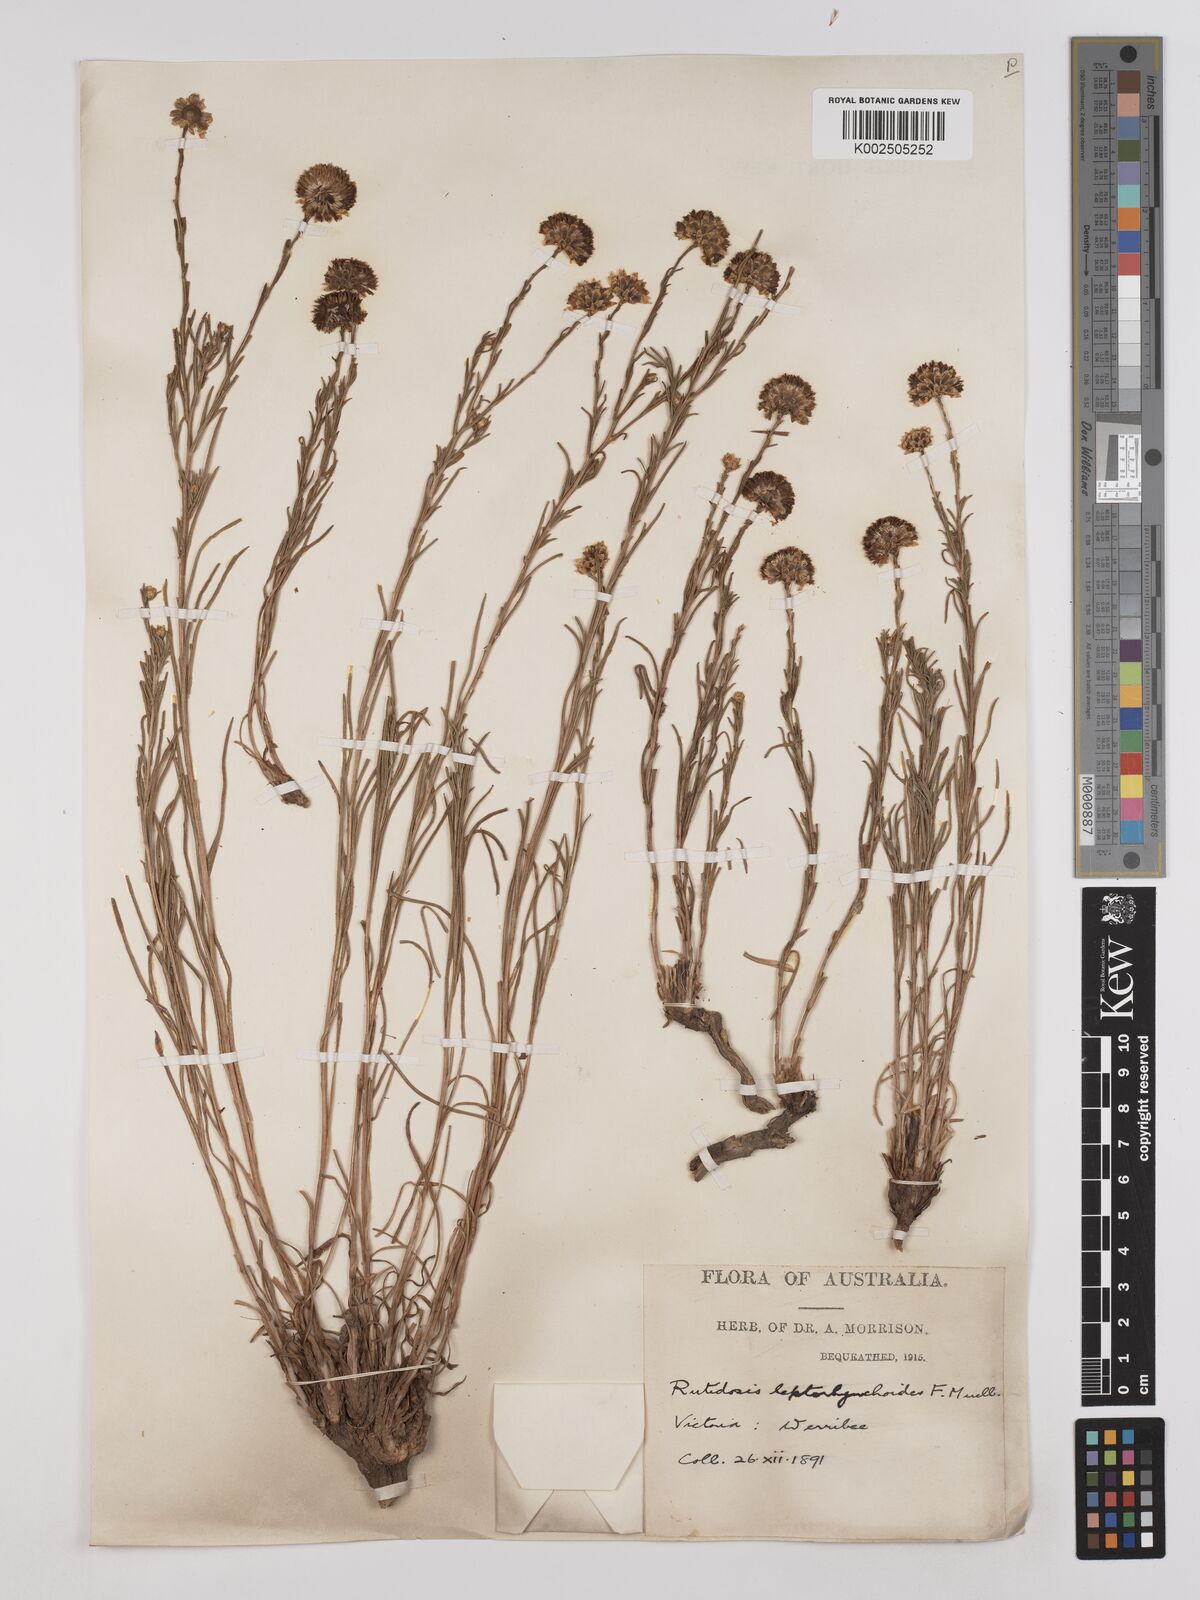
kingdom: Plantae
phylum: Tracheophyta
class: Magnoliopsida
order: Asterales
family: Asteraceae
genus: Rutidosis
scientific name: Rutidosis leptorrhynchoides
